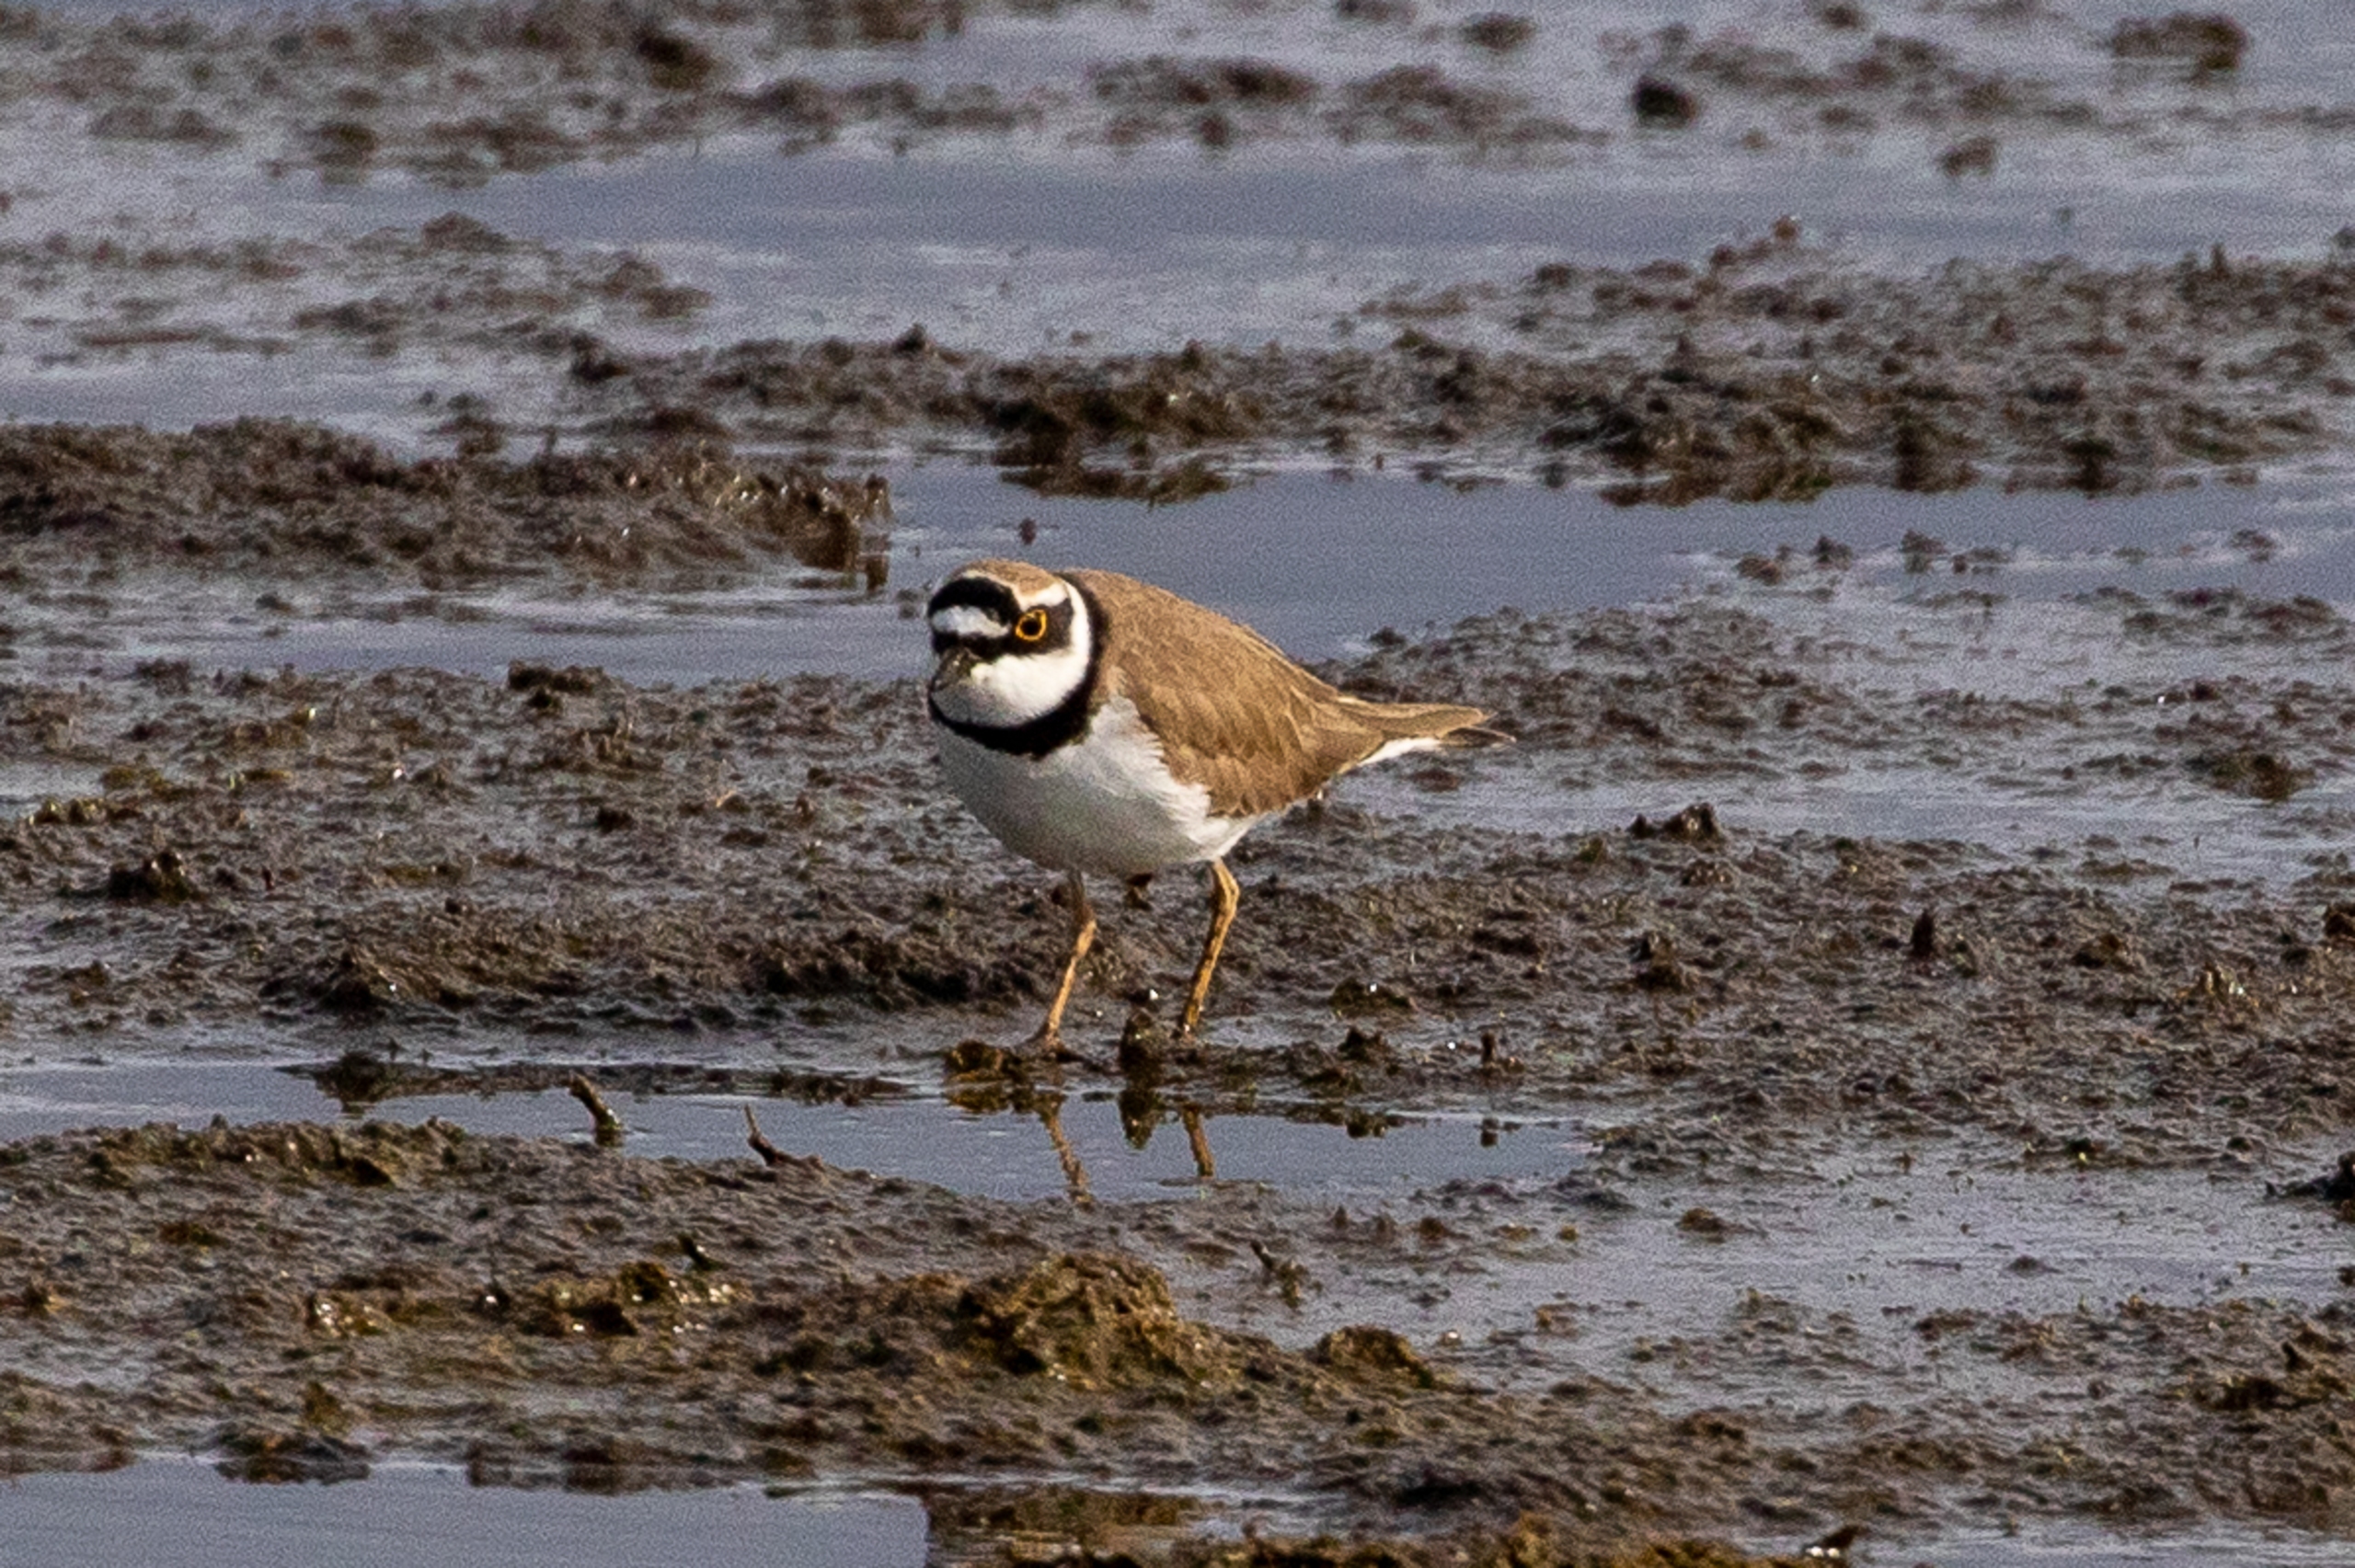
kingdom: Animalia
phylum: Chordata
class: Aves
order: Charadriiformes
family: Charadriidae
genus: Charadrius
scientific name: Charadrius dubius
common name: Lille præstekrave
